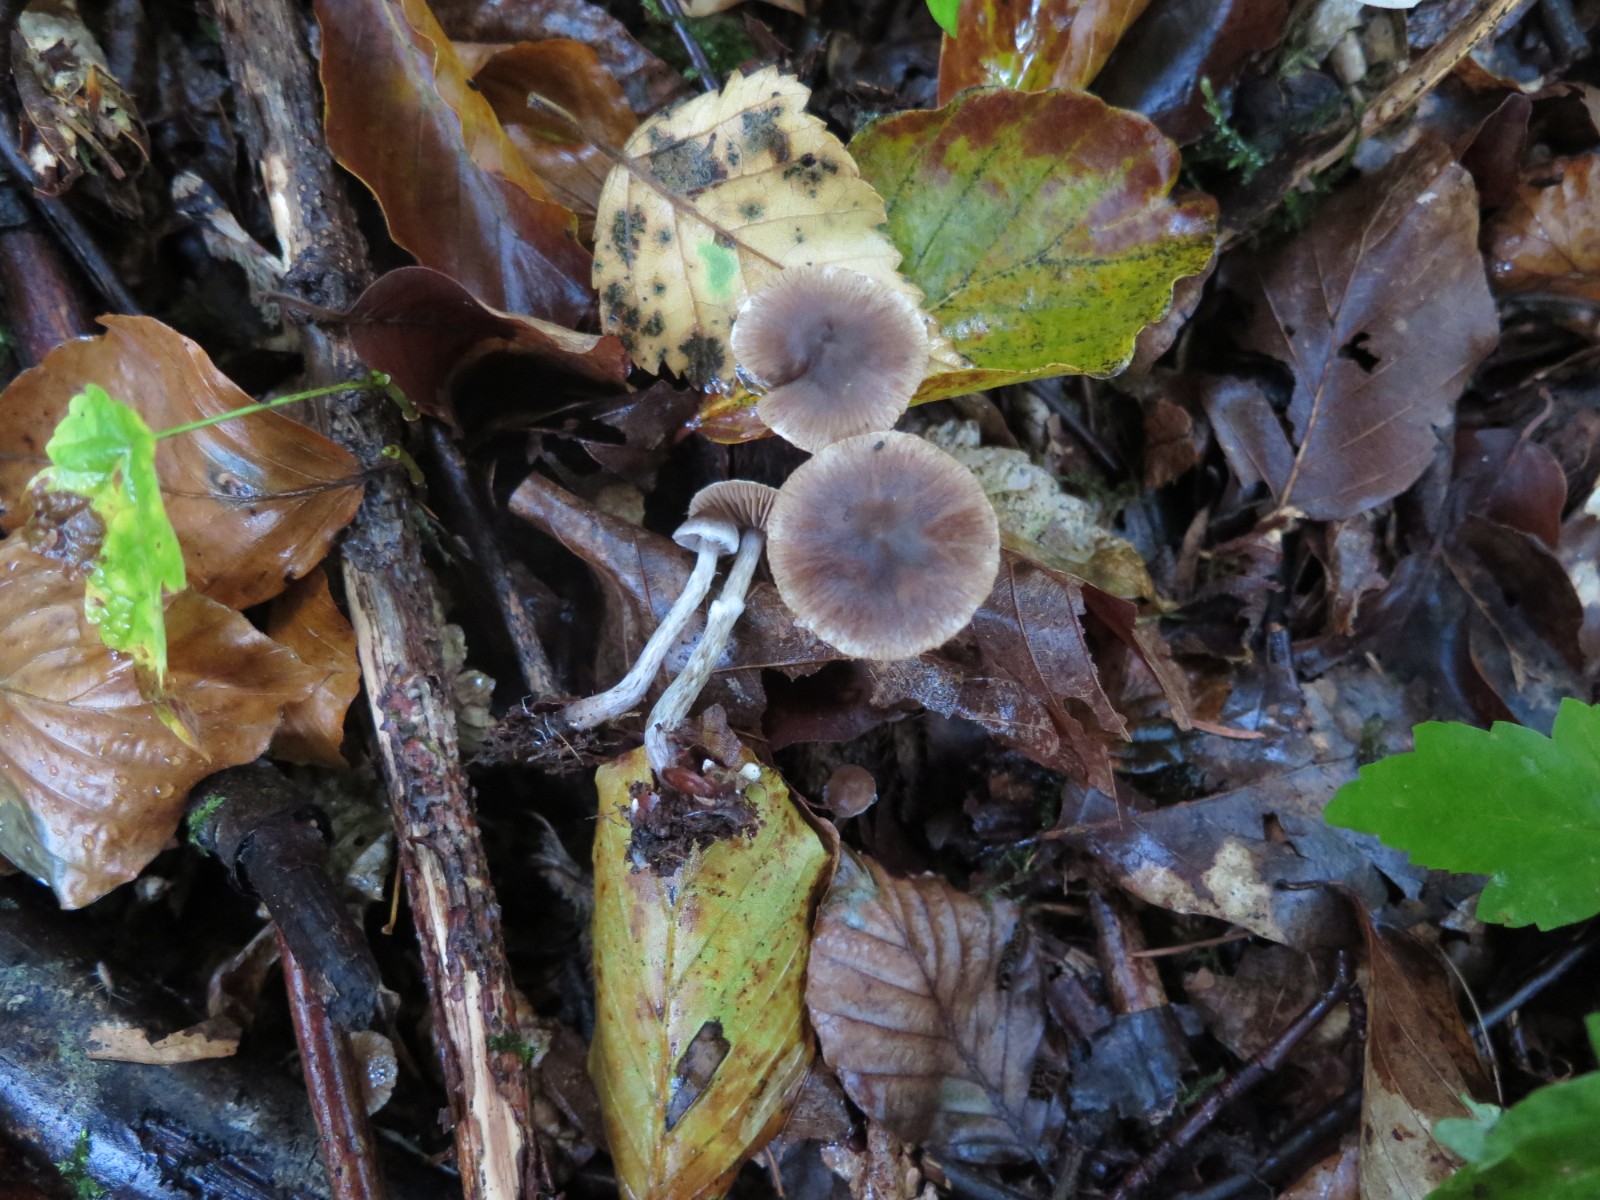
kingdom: Fungi
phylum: Basidiomycota
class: Agaricomycetes
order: Agaricales
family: Cortinariaceae
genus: Cortinarius
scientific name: Cortinarius
